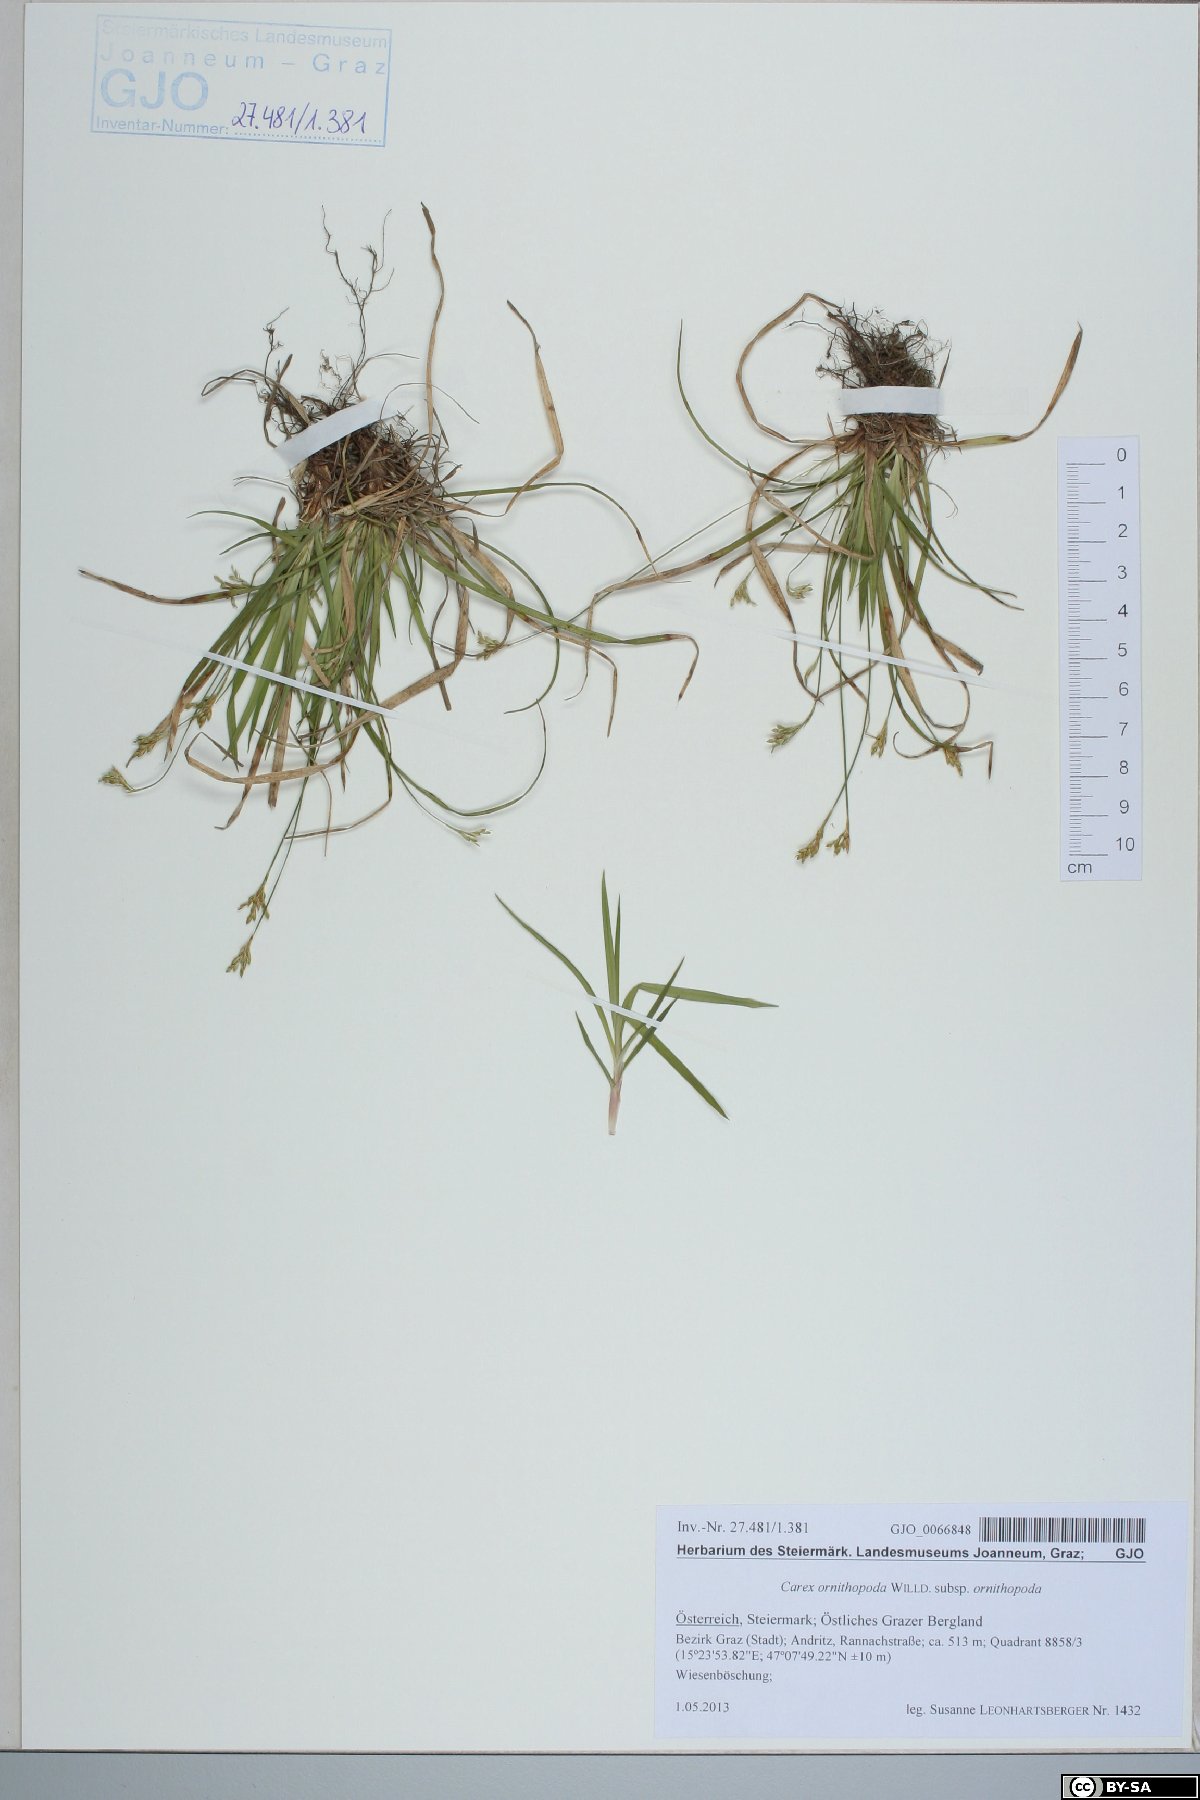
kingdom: Plantae
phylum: Tracheophyta
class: Liliopsida
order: Poales
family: Cyperaceae
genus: Carex
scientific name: Carex ornithopoda
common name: Bird's-foot sedge
